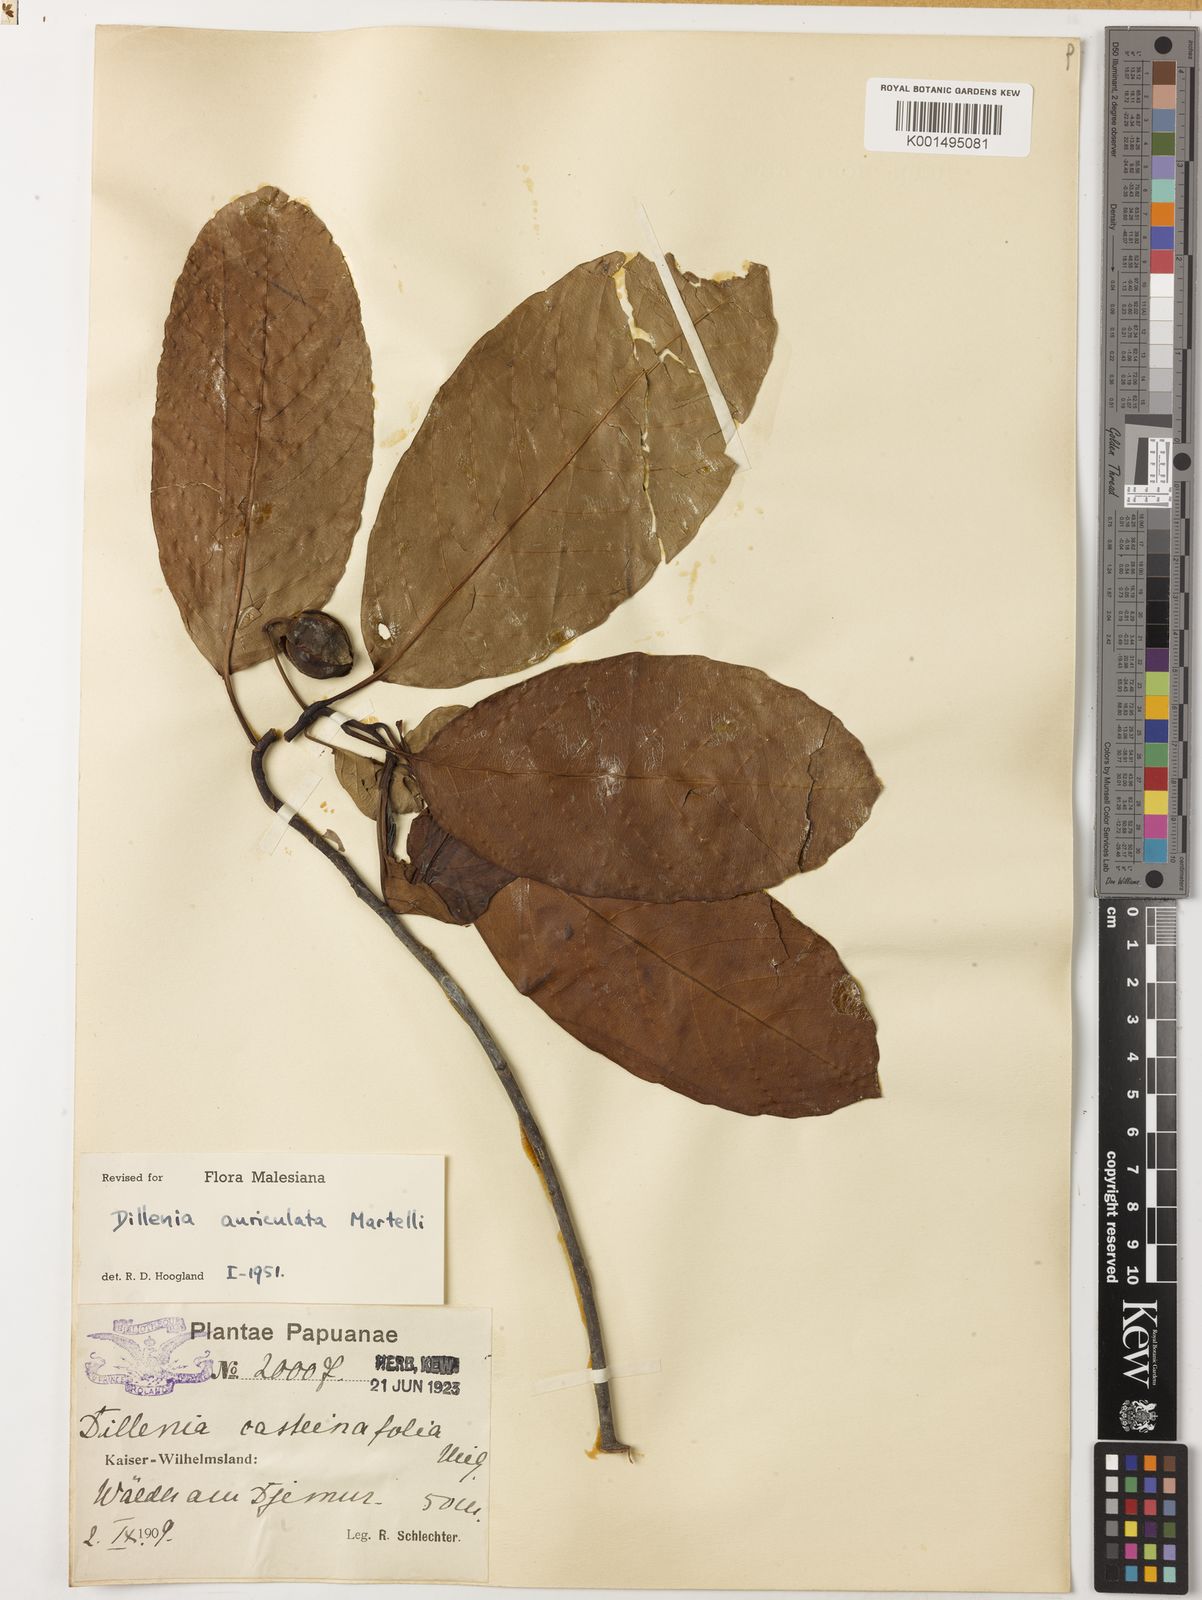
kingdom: Plantae
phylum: Tracheophyta
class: Magnoliopsida
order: Dilleniales
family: Dilleniaceae
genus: Dillenia
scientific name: Dillenia auriculata
